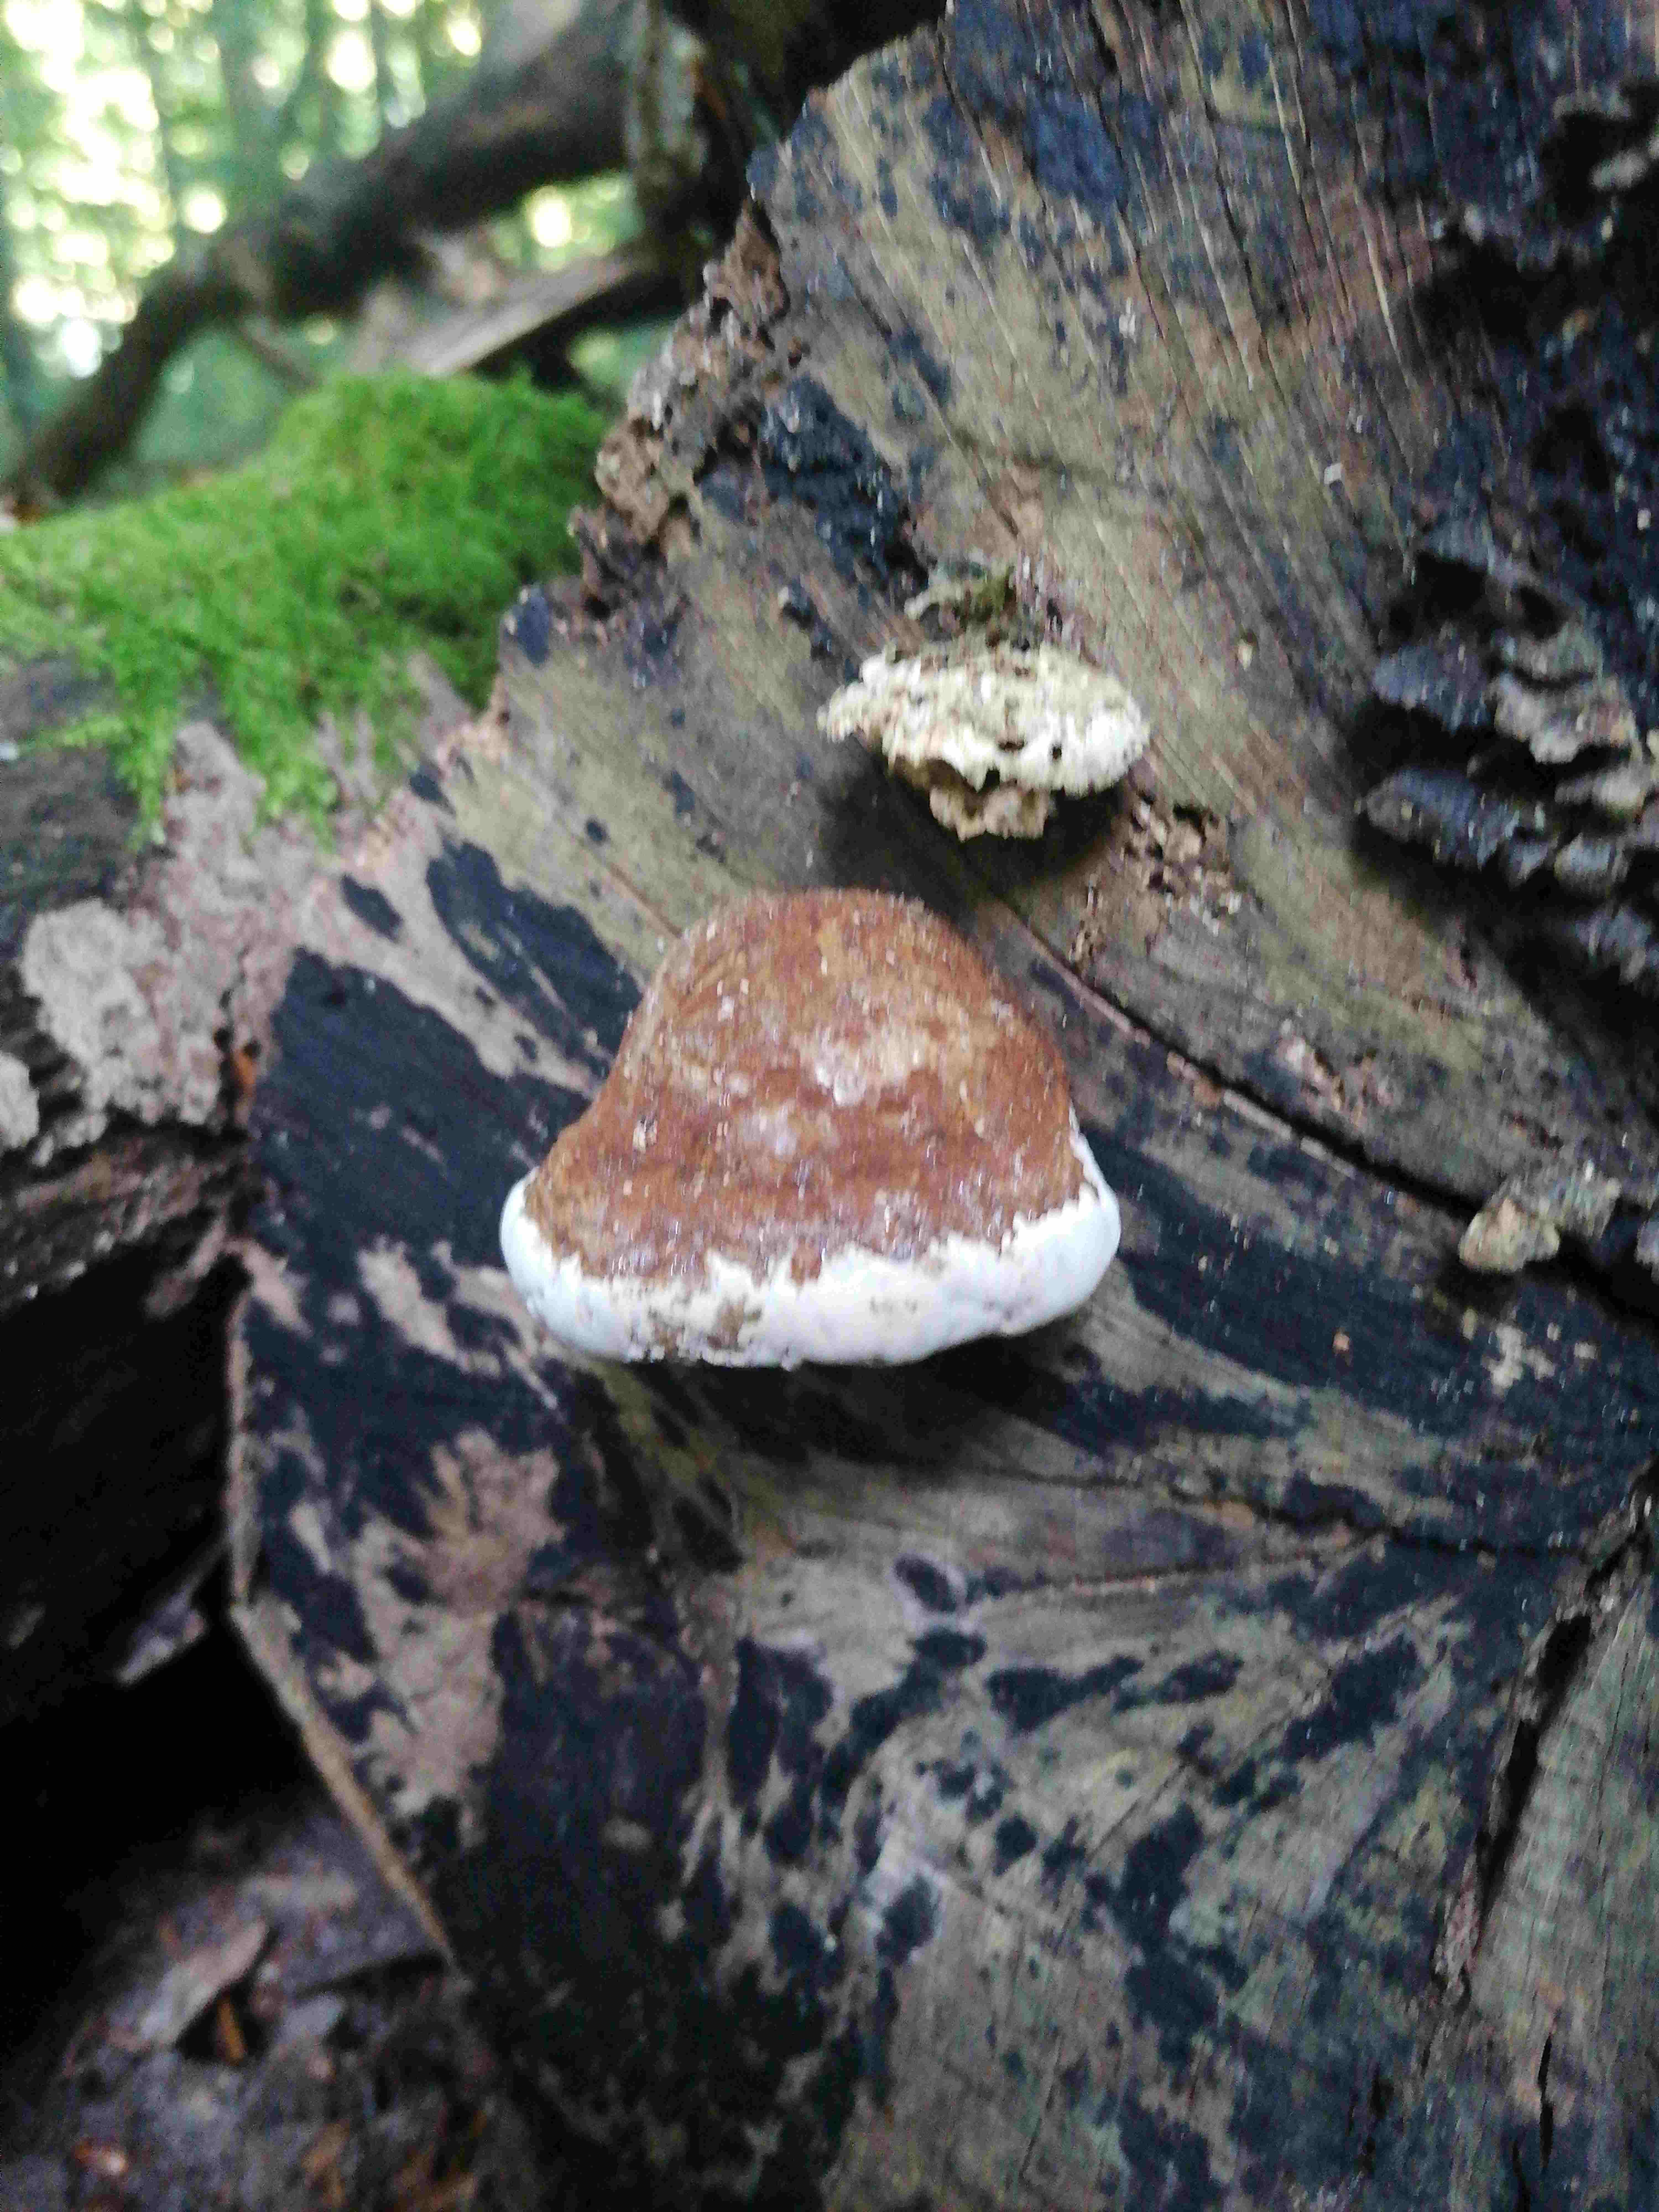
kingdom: Fungi
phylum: Basidiomycota
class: Agaricomycetes
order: Polyporales
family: Polyporaceae
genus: Fomes
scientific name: Fomes fomentarius
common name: tøndersvamp
